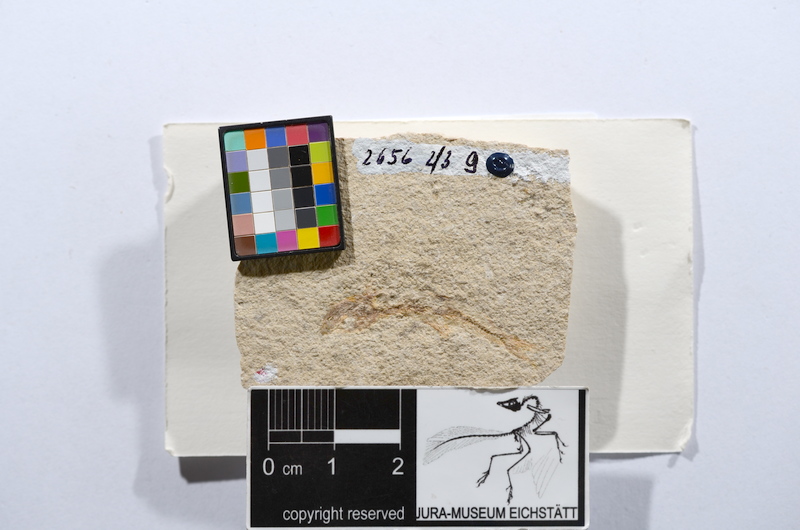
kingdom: Animalia
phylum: Chordata
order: Salmoniformes
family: Orthogonikleithridae
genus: Leptolepides
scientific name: Leptolepides sprattiformis
